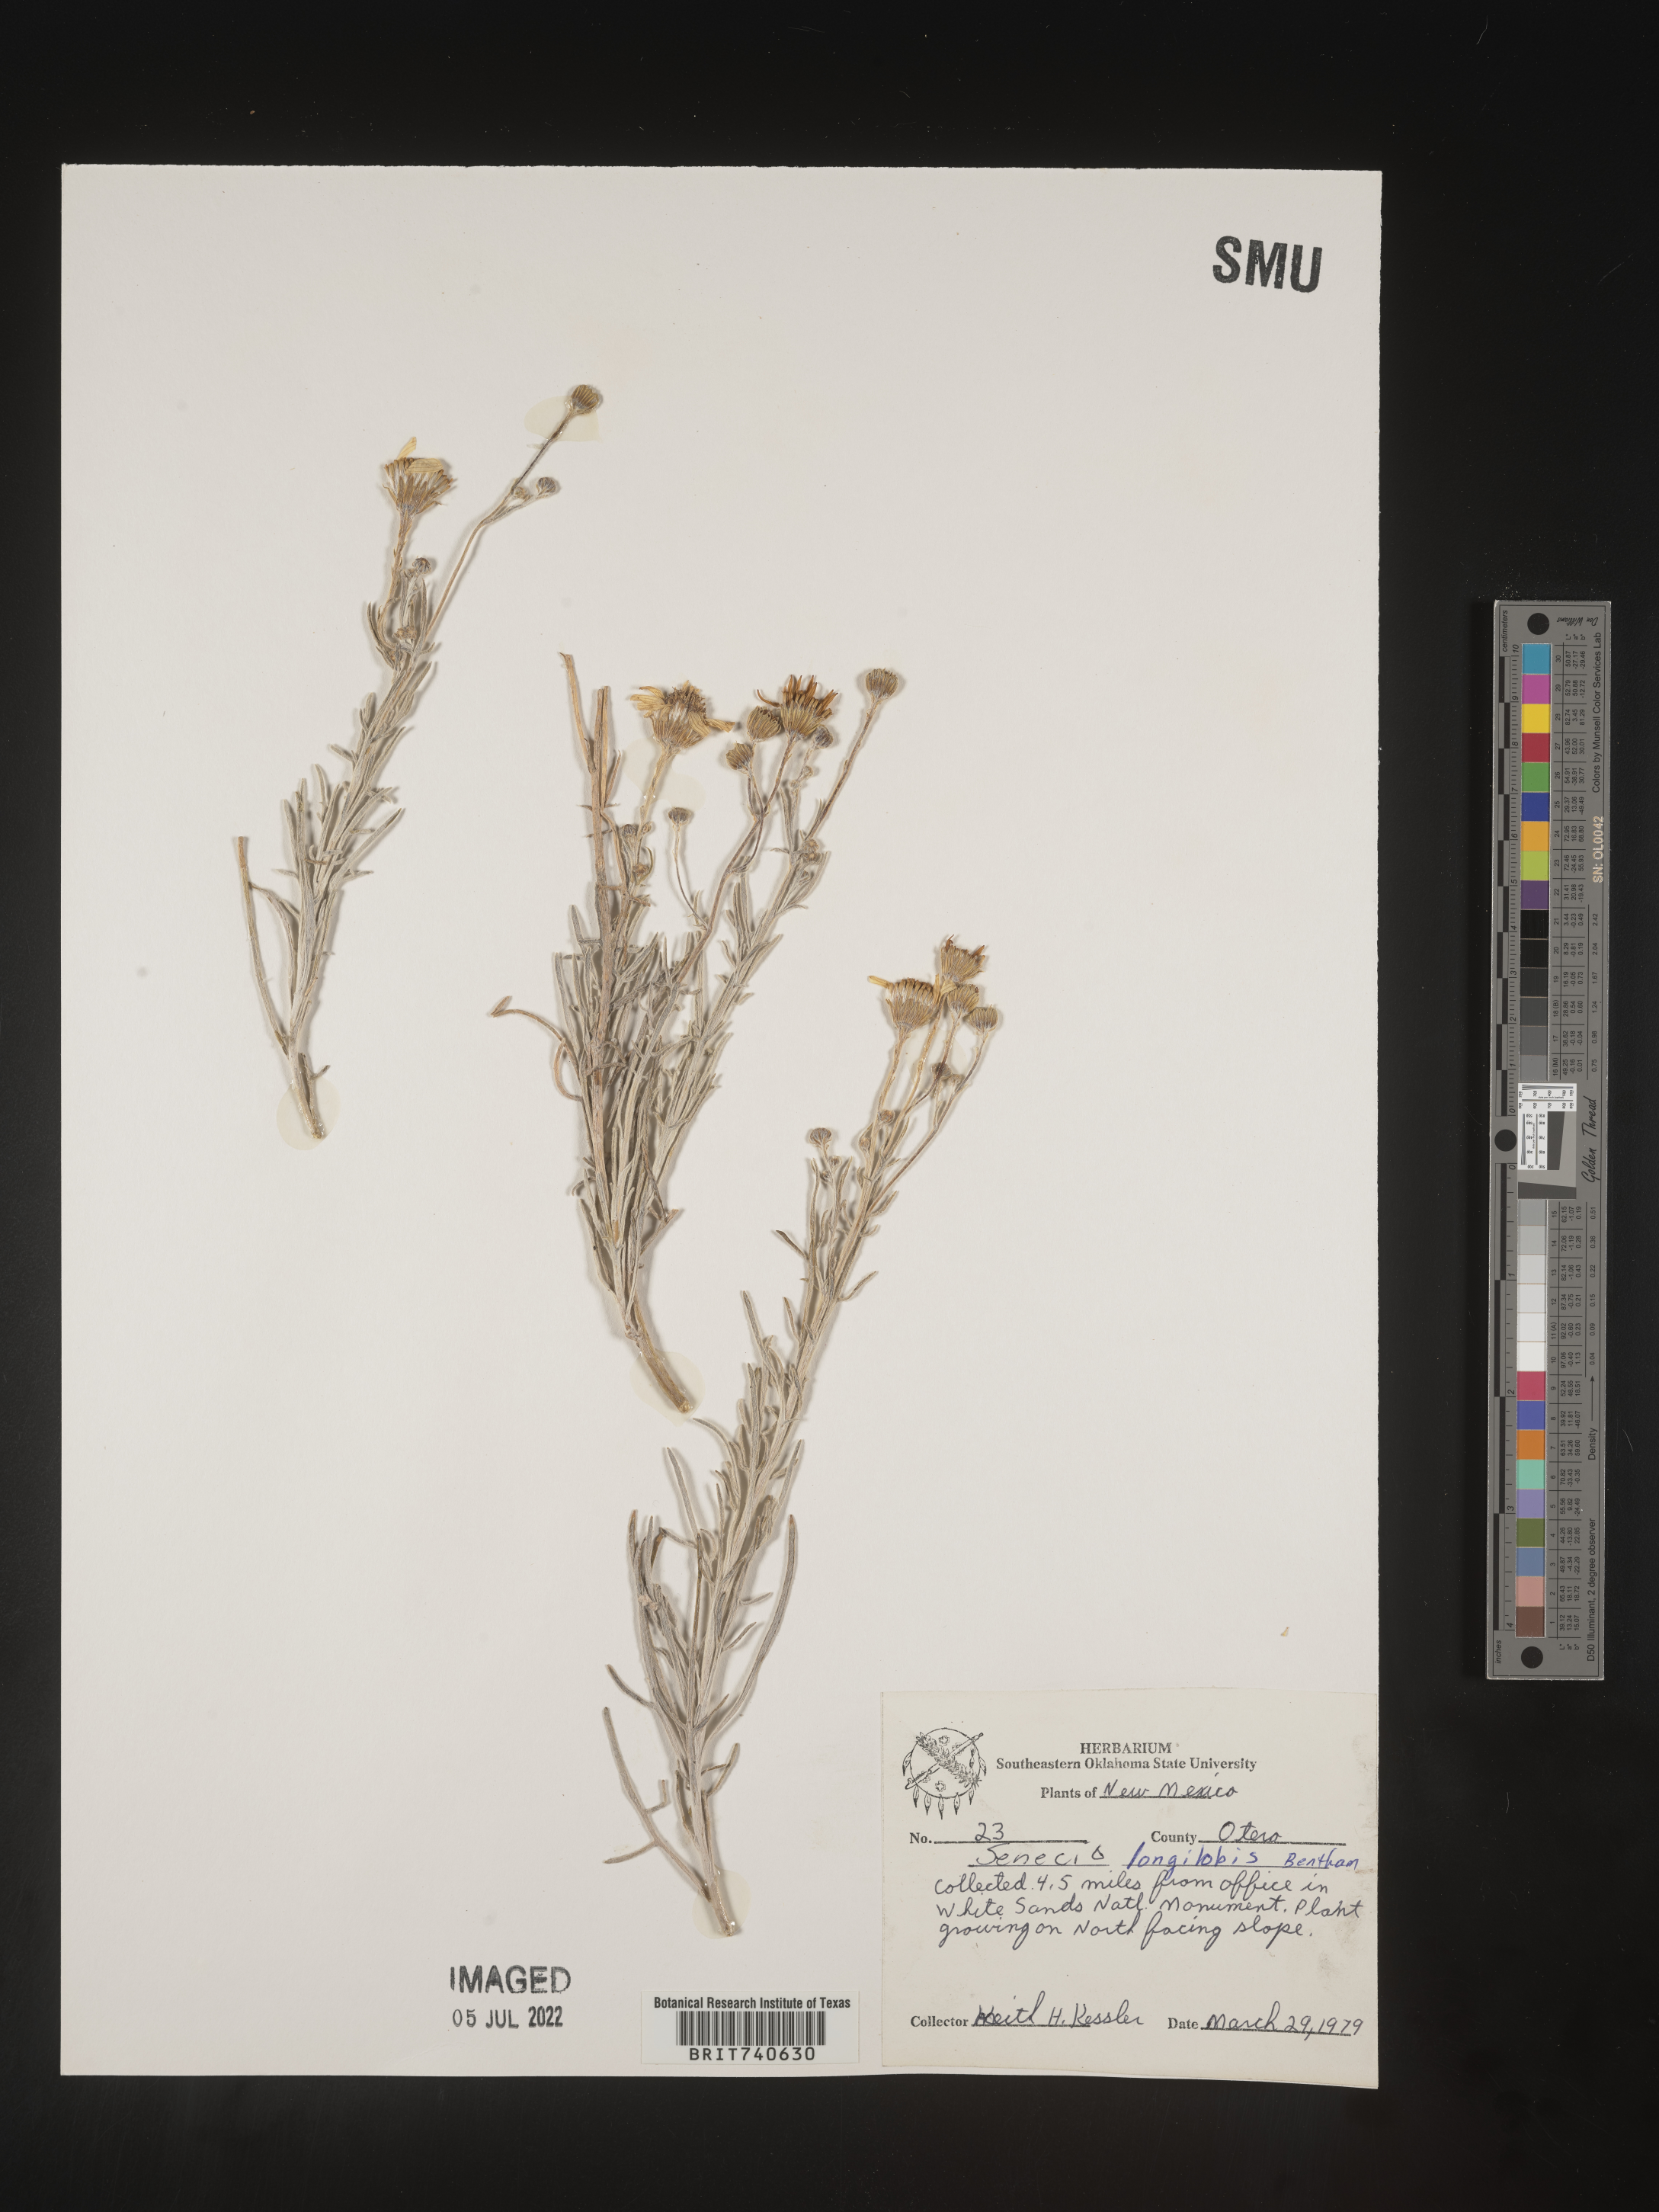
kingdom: Plantae
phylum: Tracheophyta
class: Magnoliopsida
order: Asterales
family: Asteraceae
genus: Senecio
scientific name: Senecio flaccidus
